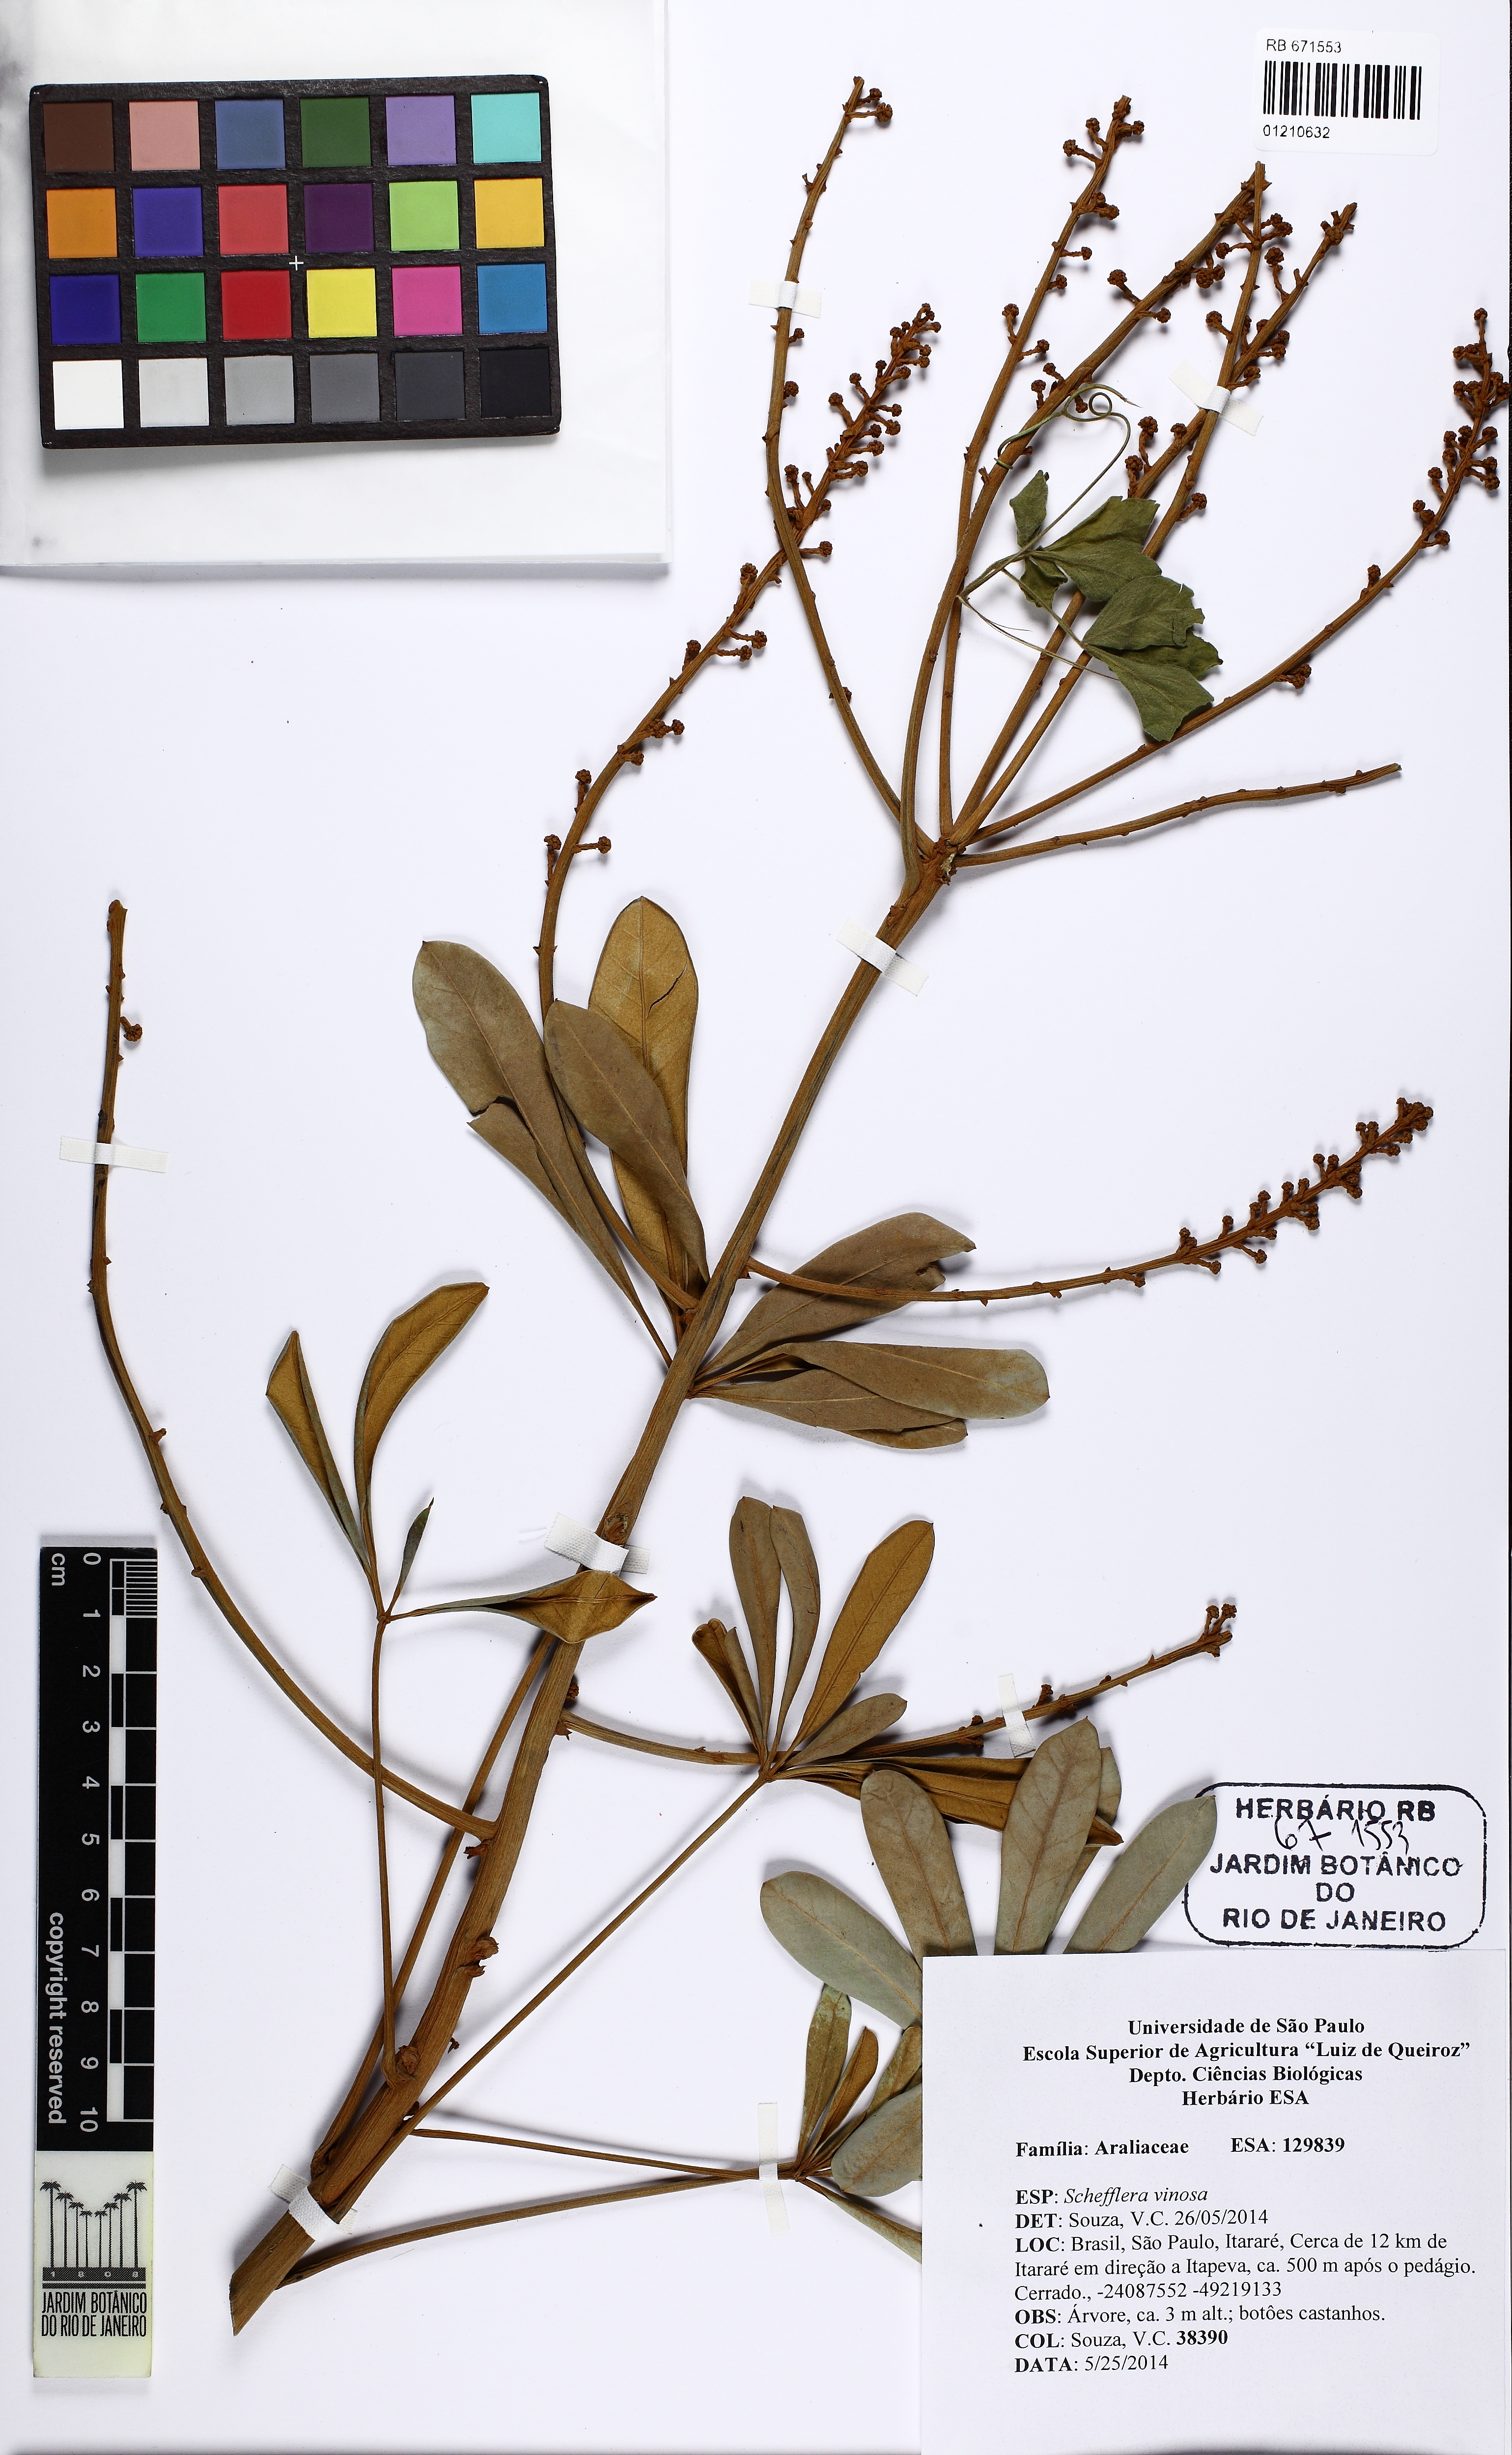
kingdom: Plantae
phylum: Tracheophyta
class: Magnoliopsida
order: Apiales
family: Araliaceae
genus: Didymopanax
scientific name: Didymopanax vinosus
